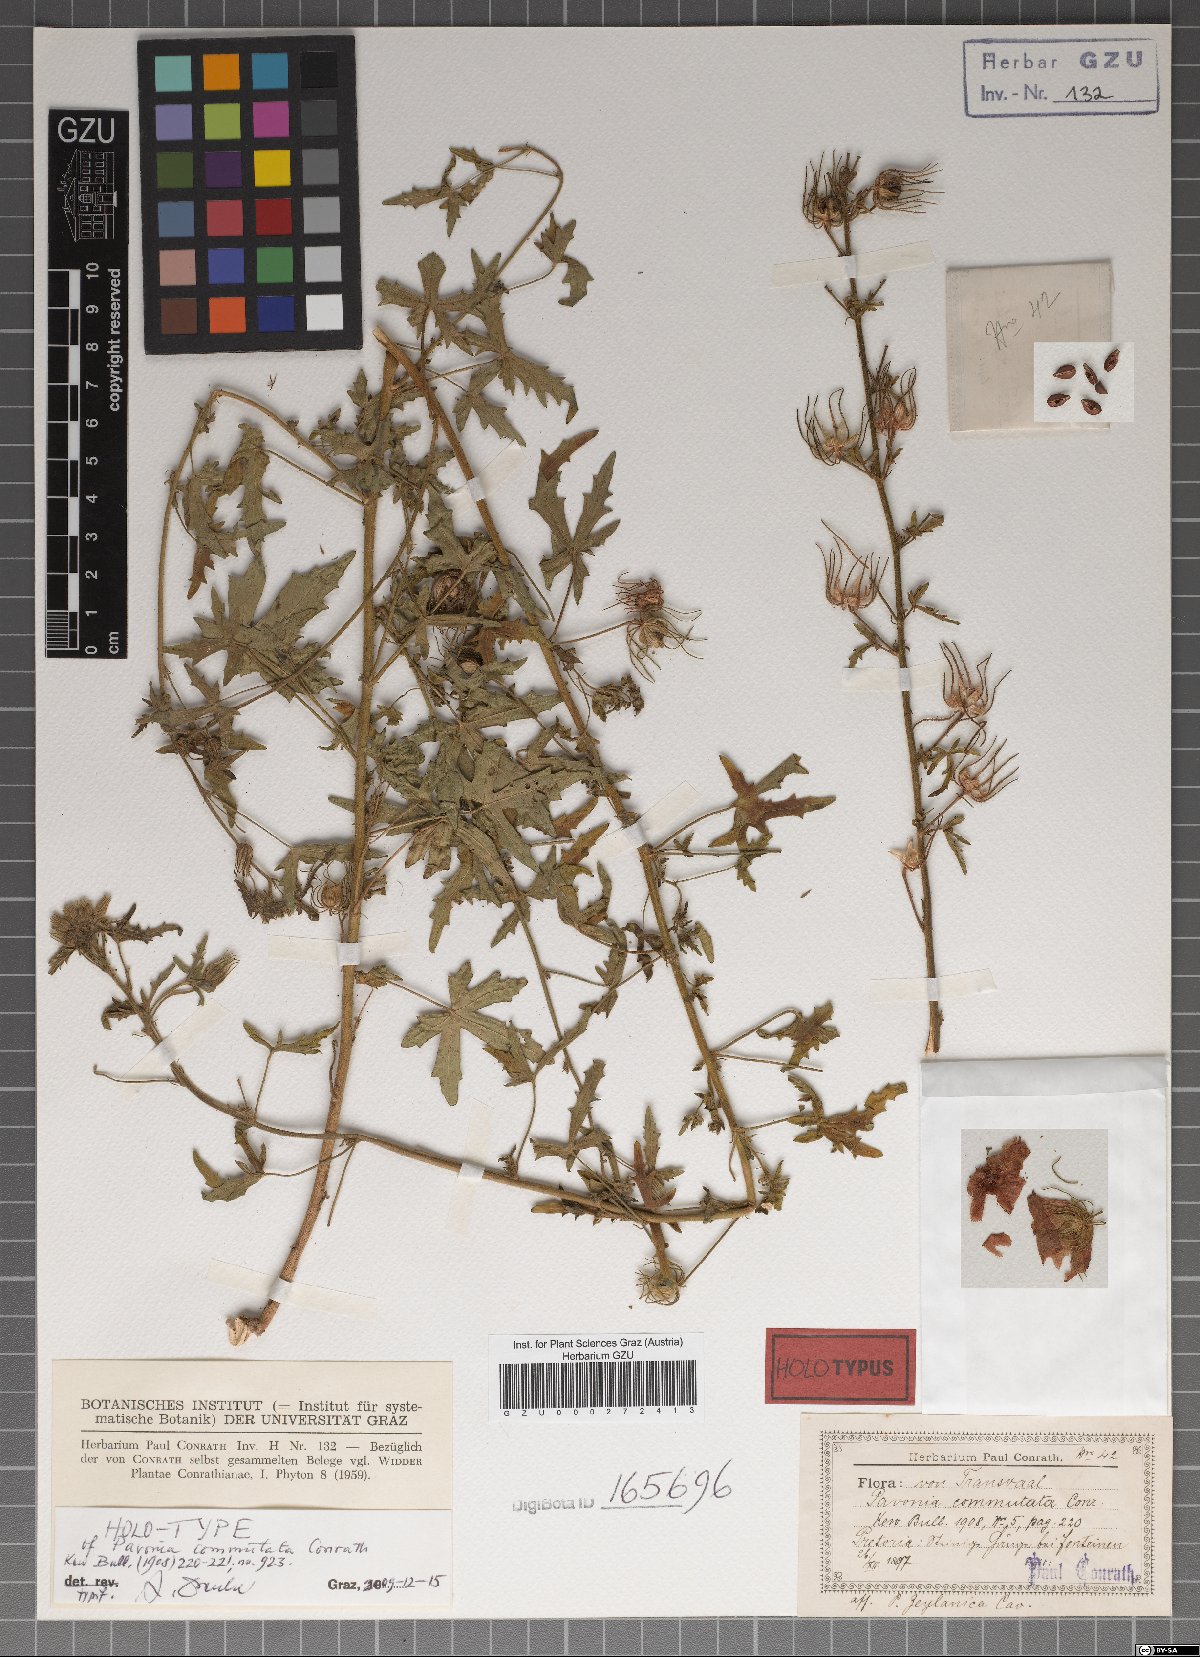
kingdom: Plantae
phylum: Tracheophyta
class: Magnoliopsida
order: Malvales
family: Malvaceae
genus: Pavonia
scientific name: Pavonia commutata
